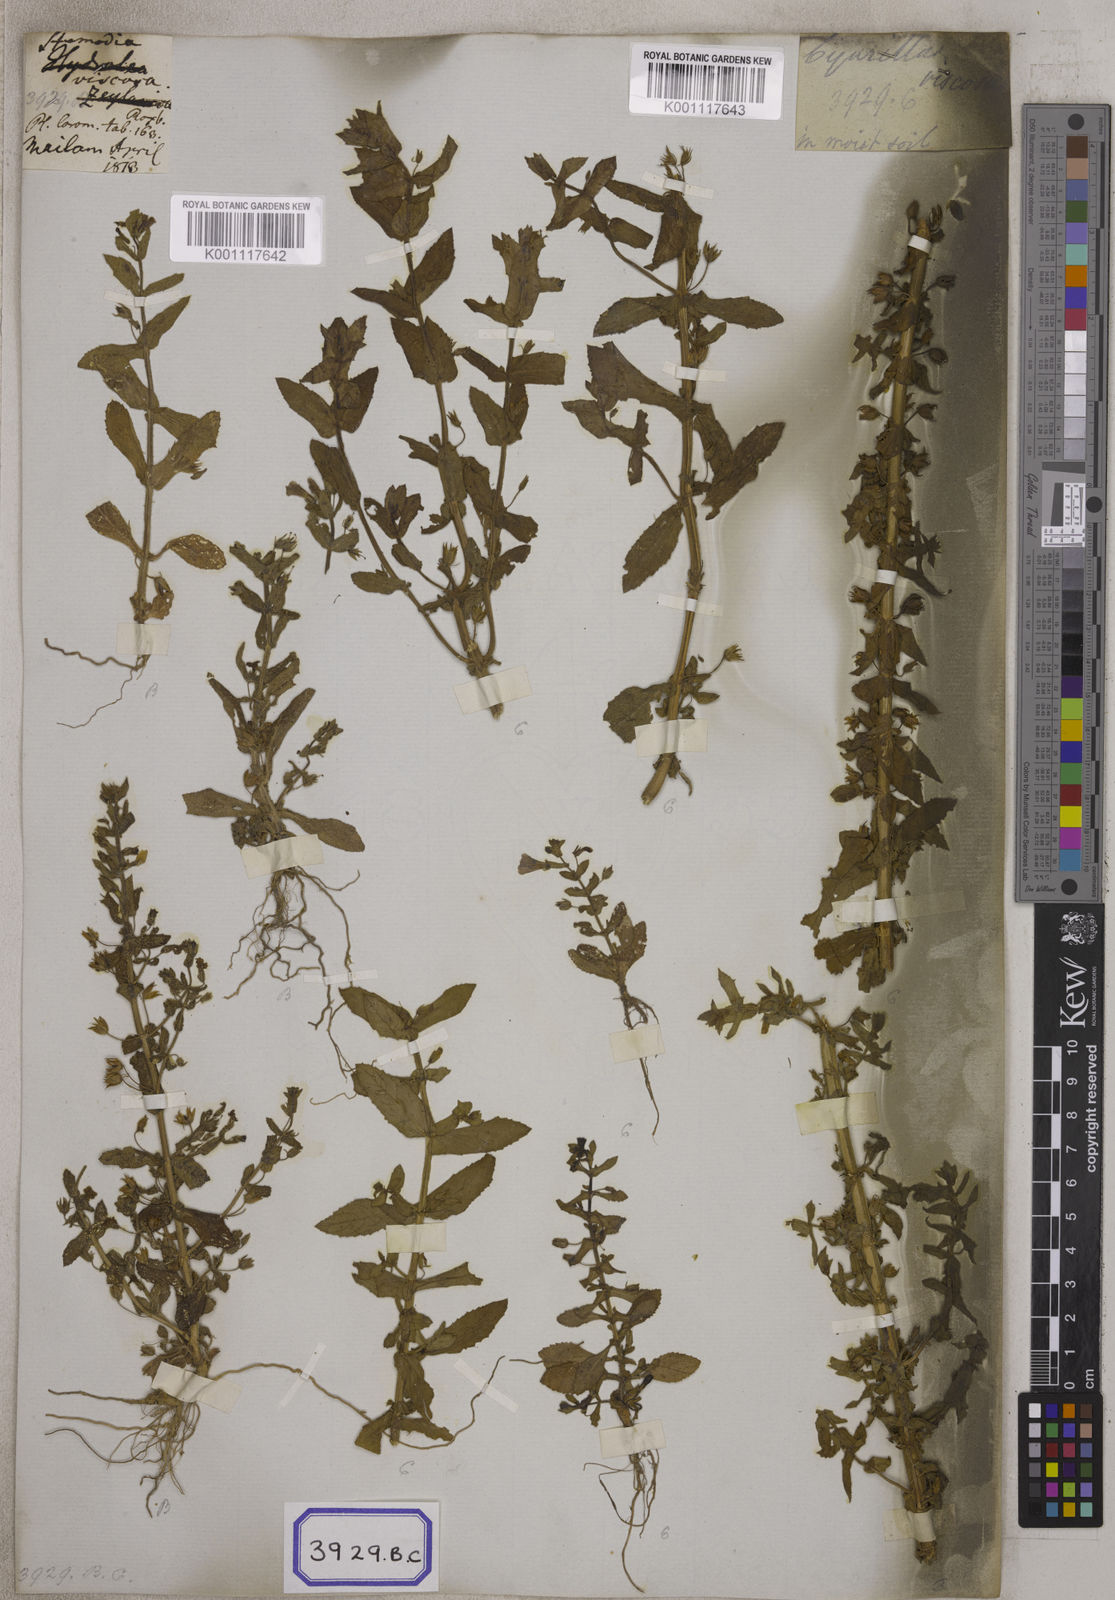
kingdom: Plantae
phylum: Tracheophyta
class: Magnoliopsida
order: Lamiales
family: Plantaginaceae
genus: Stemodia
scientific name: Stemodia viscosa
